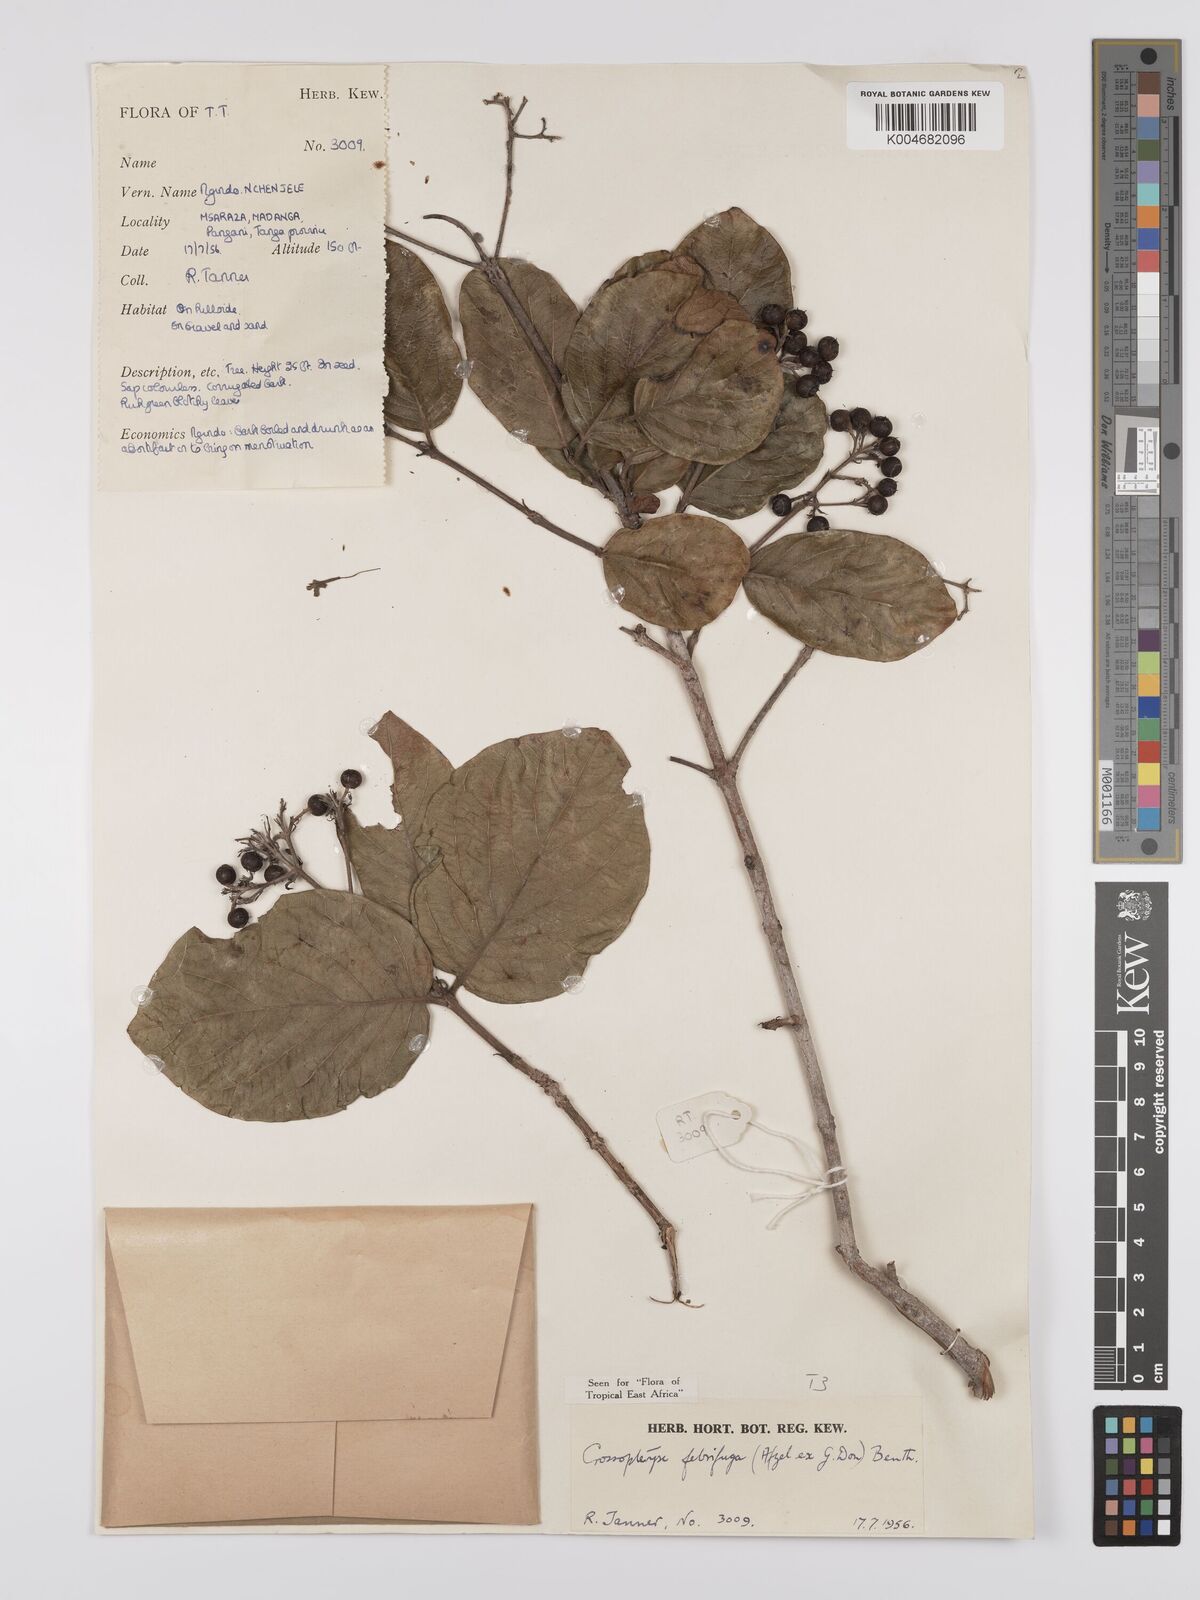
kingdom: Plantae
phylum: Tracheophyta
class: Magnoliopsida
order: Gentianales
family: Rubiaceae
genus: Crossopteryx
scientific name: Crossopteryx
